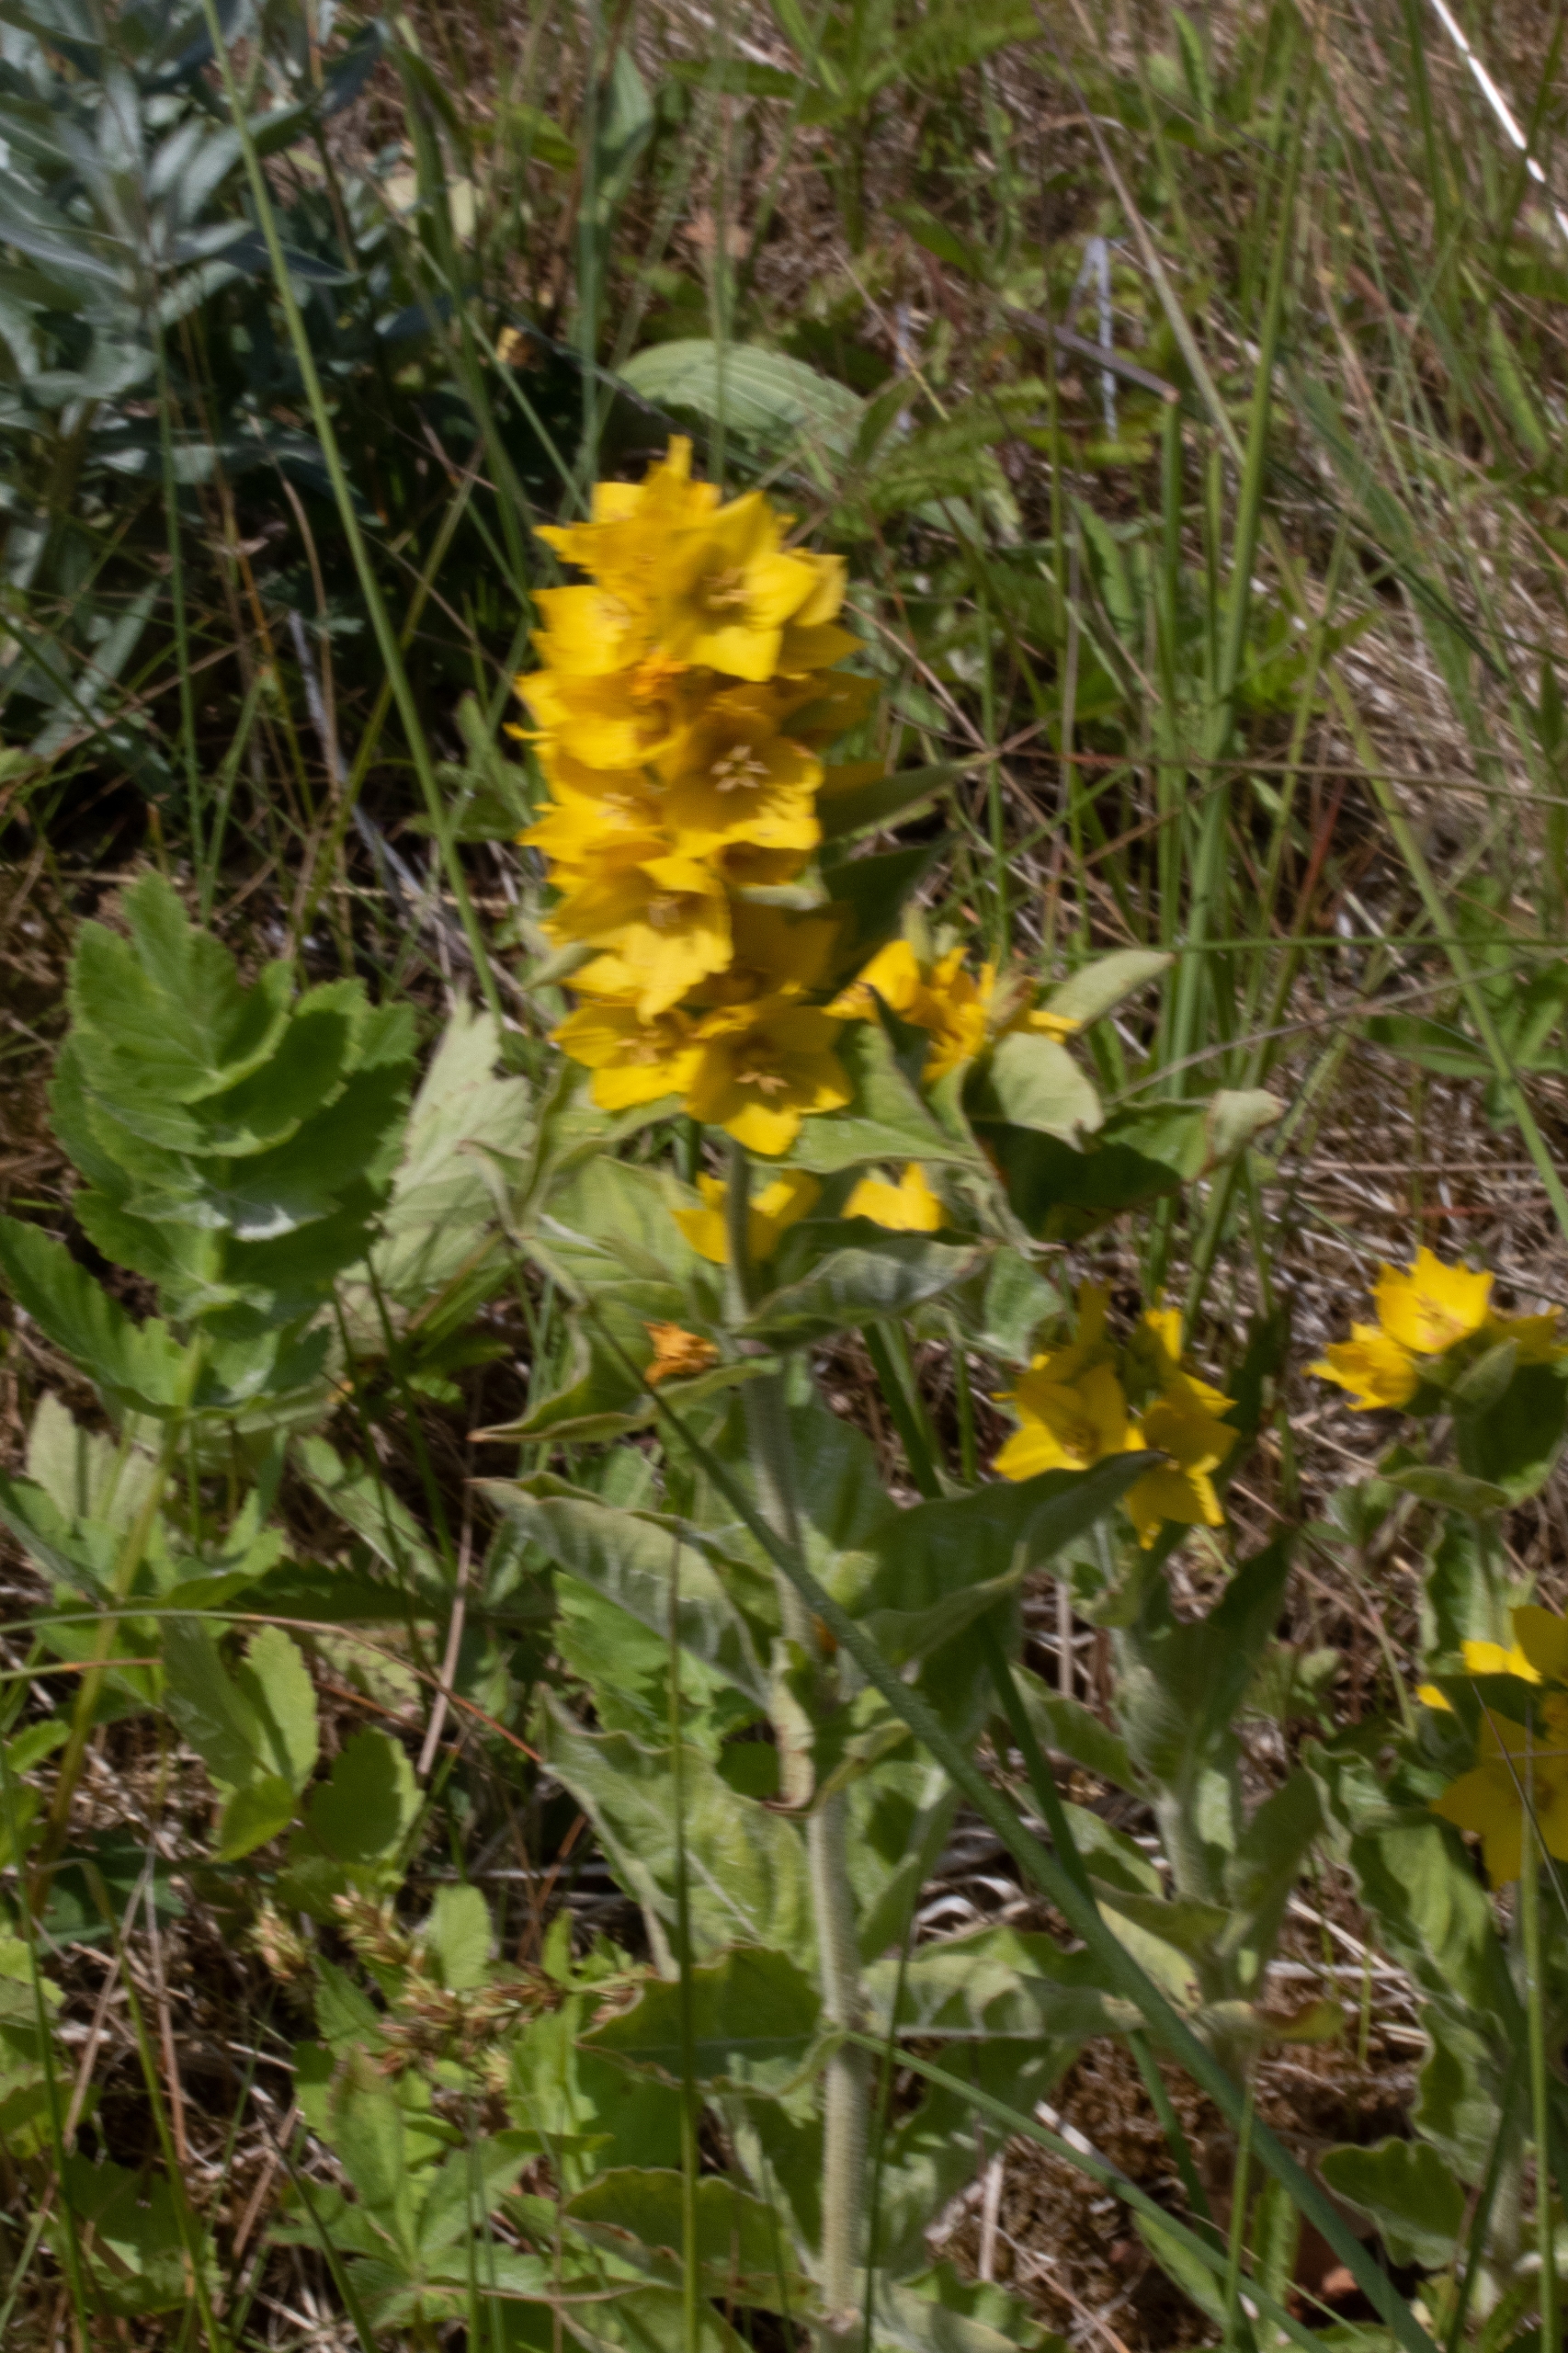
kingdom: Plantae
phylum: Tracheophyta
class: Magnoliopsida
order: Ericales
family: Primulaceae
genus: Lysimachia
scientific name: Lysimachia punctata
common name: Prikbladet fredløs
